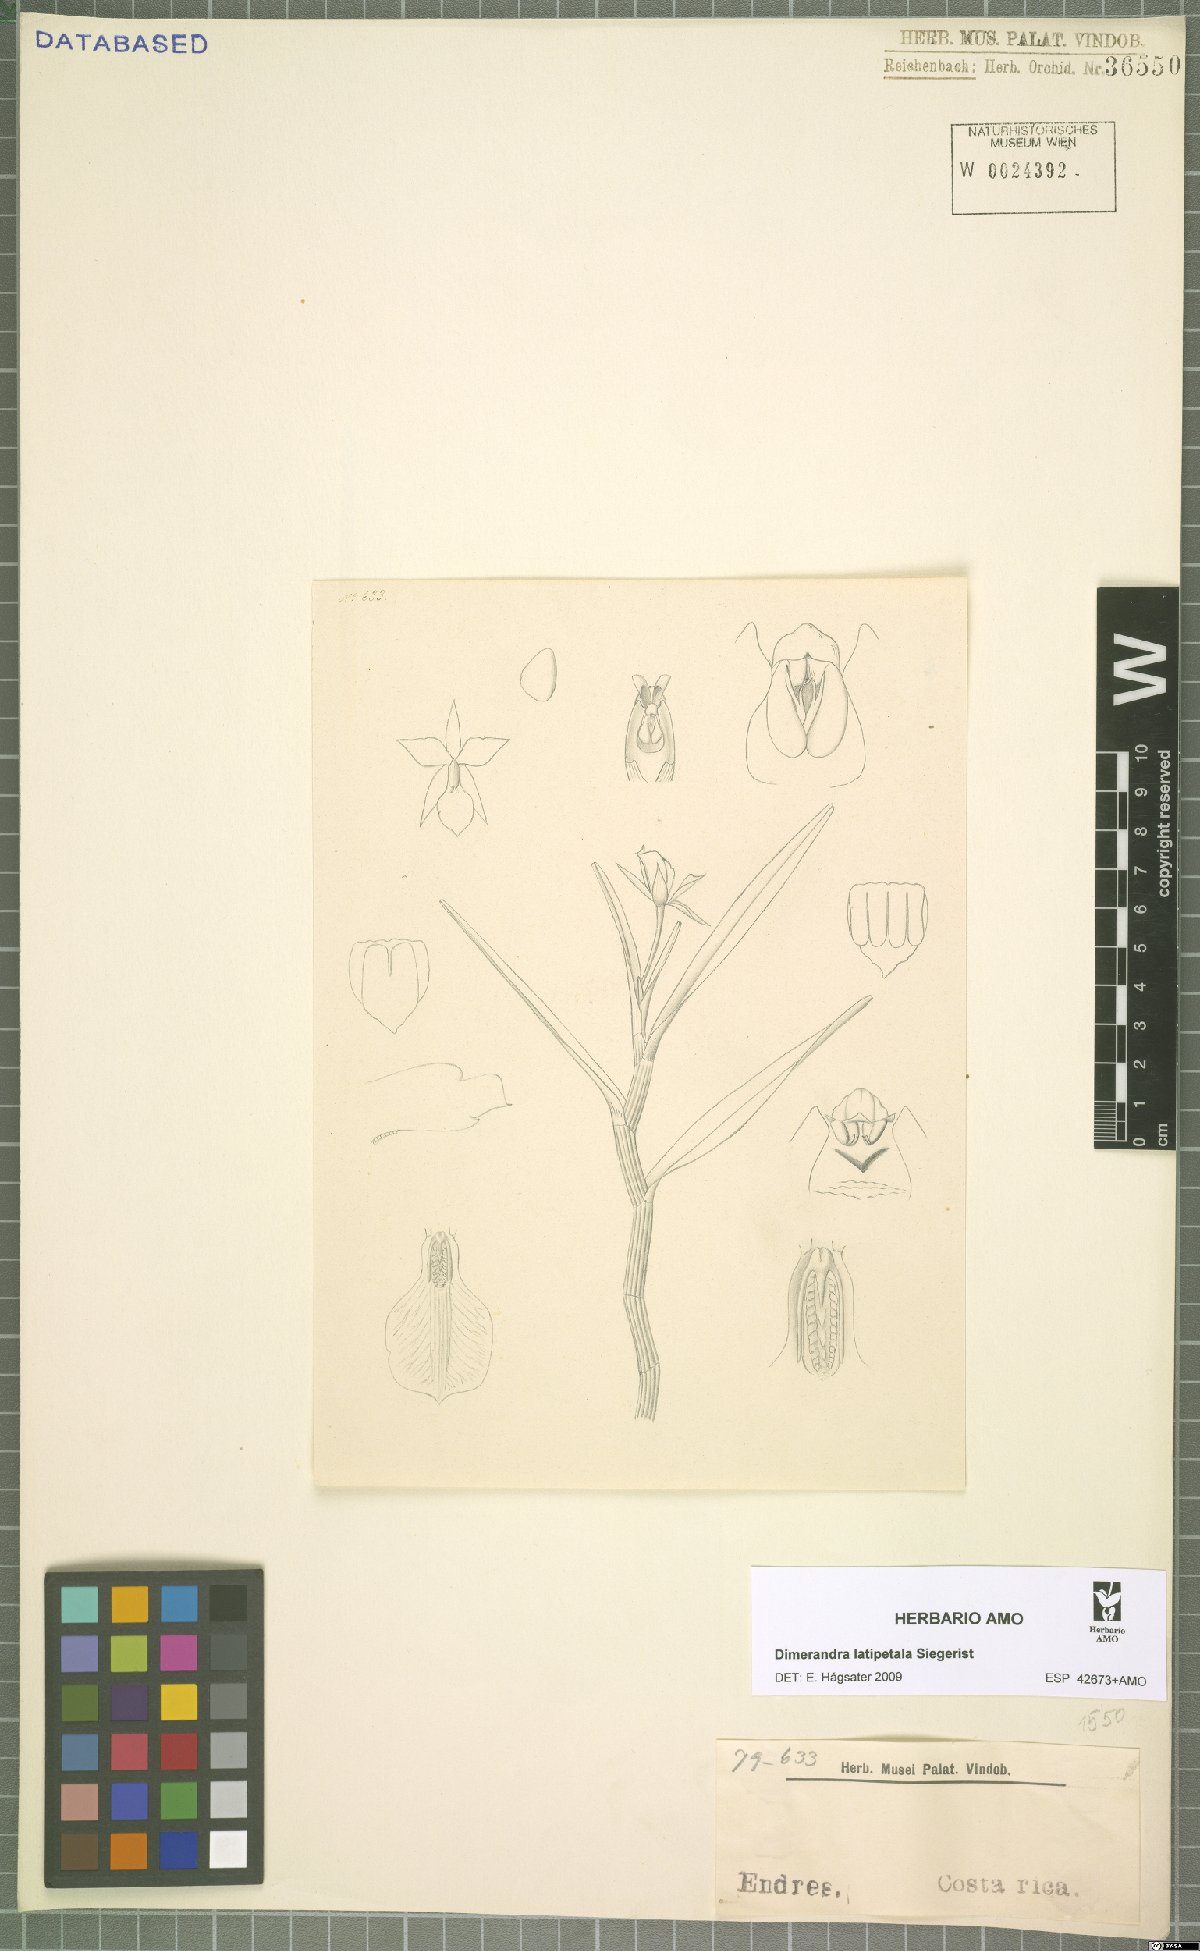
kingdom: Plantae
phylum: Tracheophyta
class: Liliopsida
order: Asparagales
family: Orchidaceae
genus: Dimerandra
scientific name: Dimerandra emarginata
